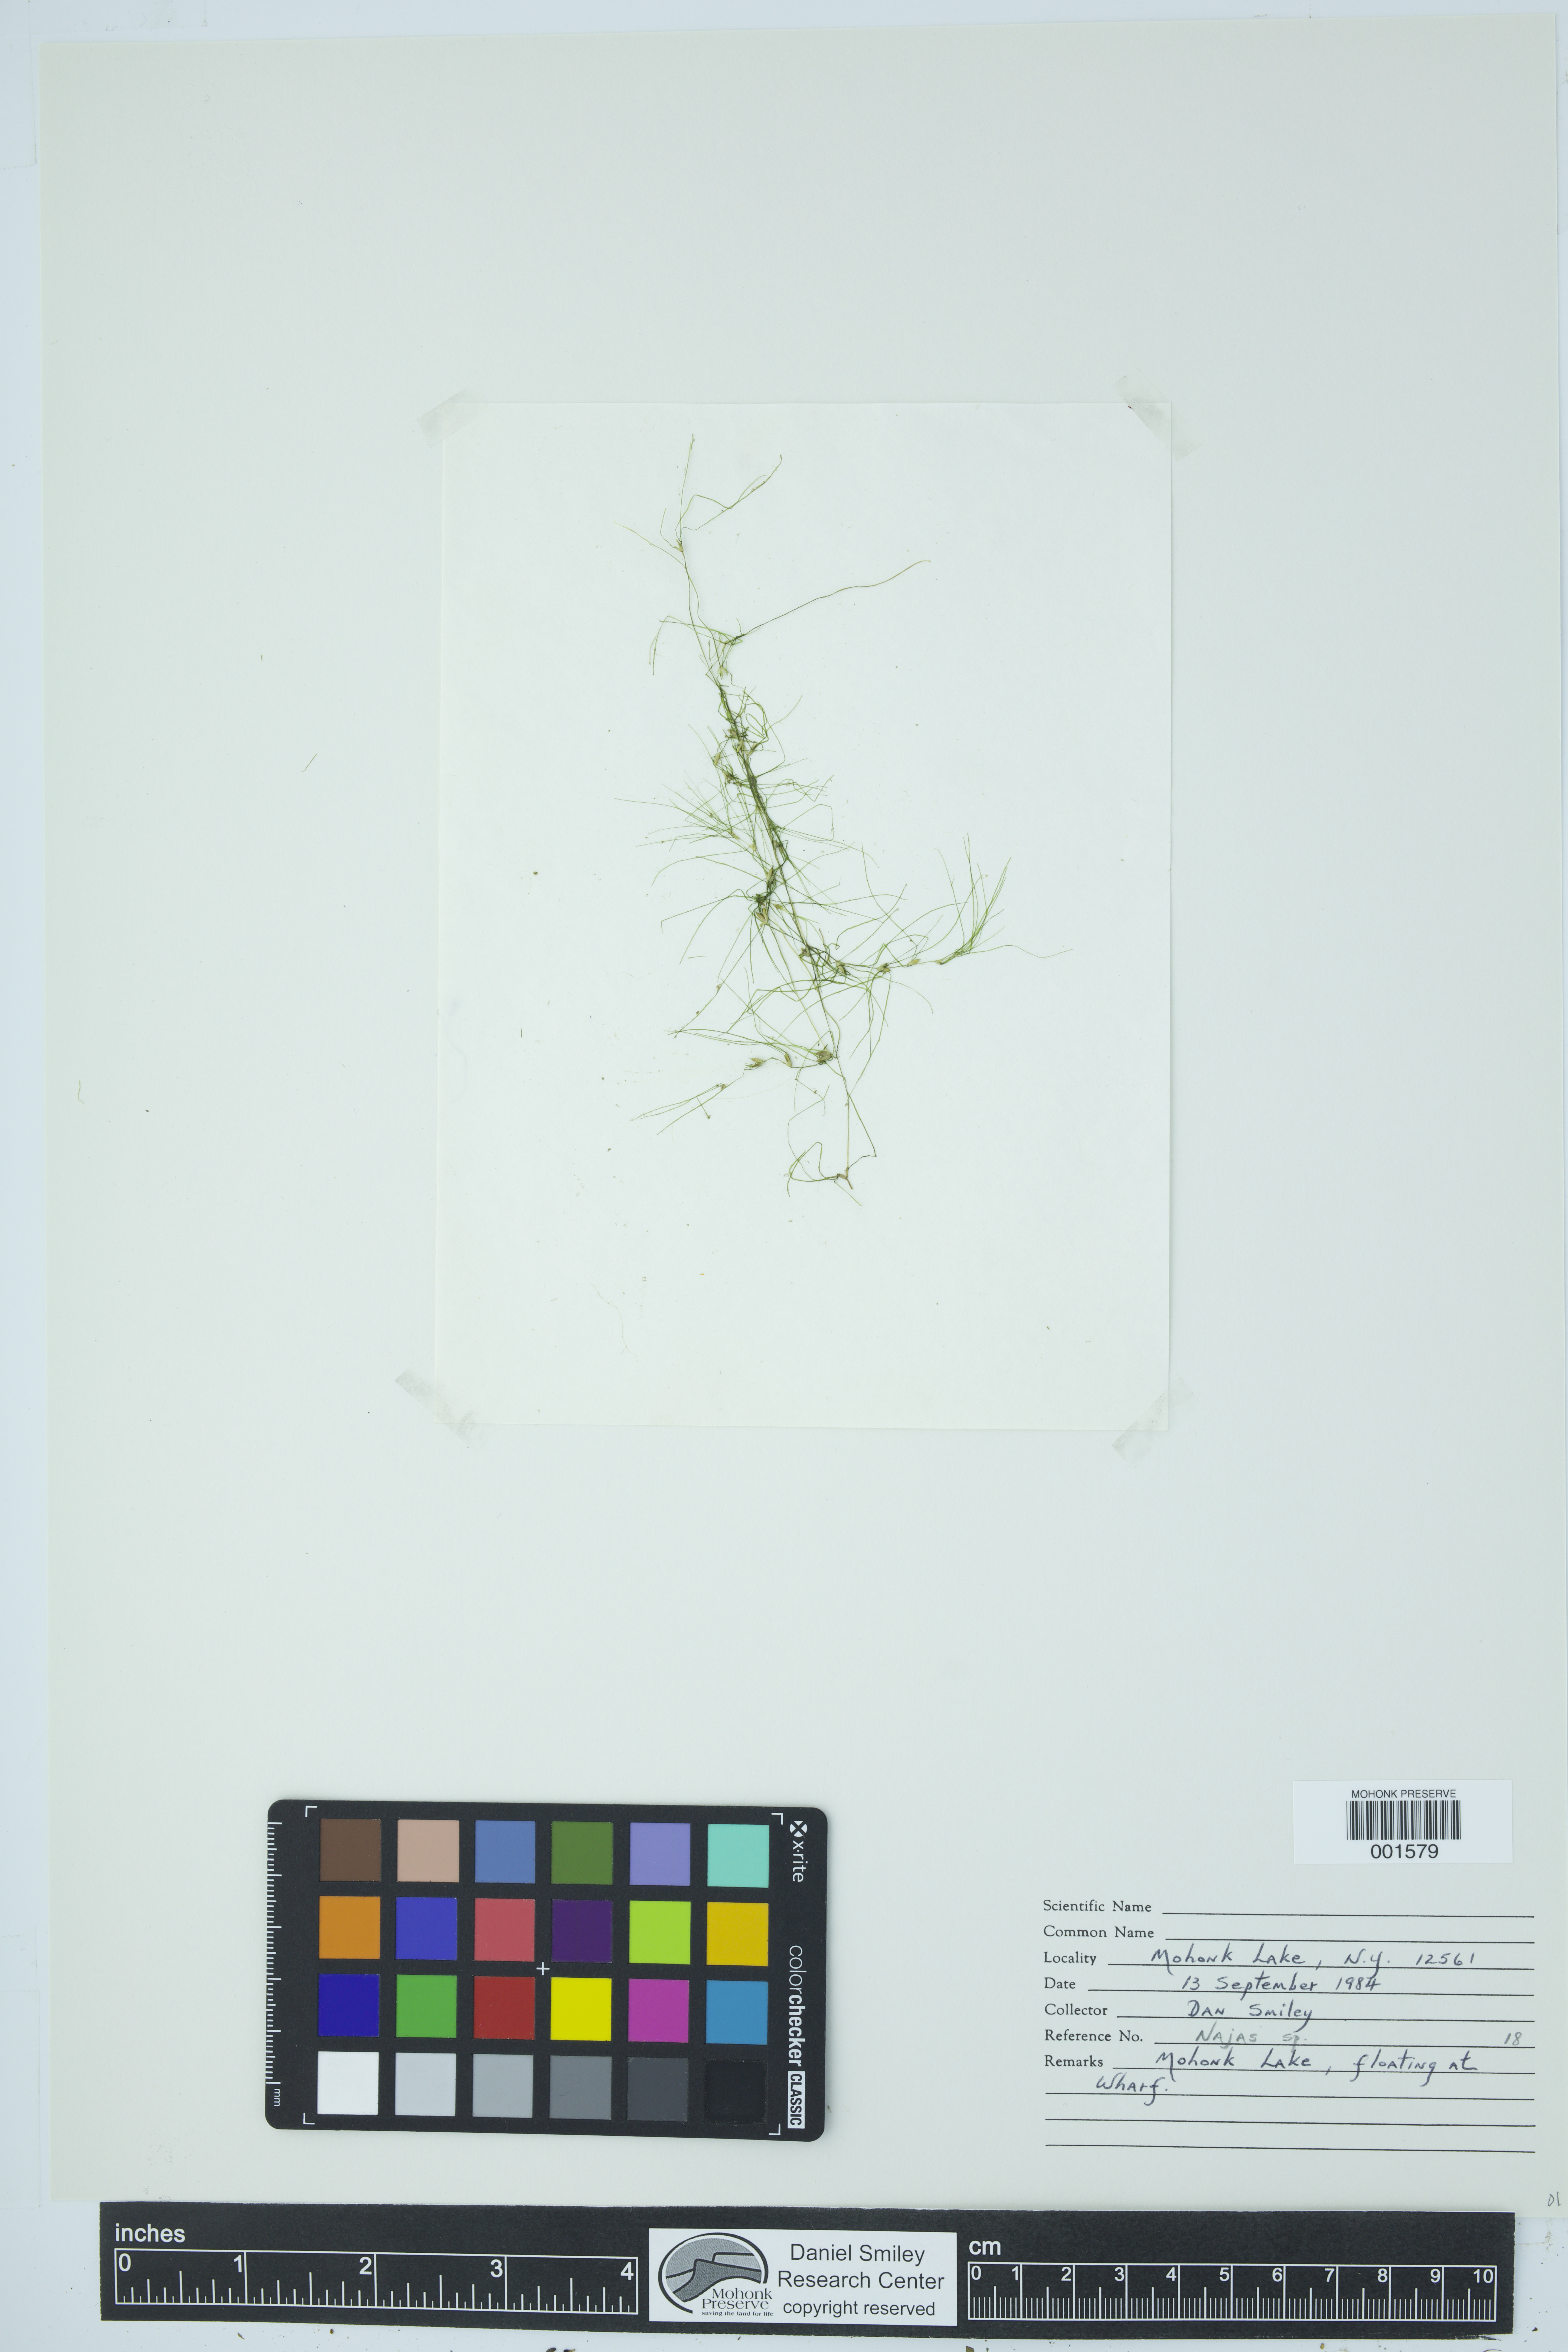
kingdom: Plantae
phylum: Tracheophyta
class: Liliopsida
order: Alismatales
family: Hydrocharitaceae
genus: Najas
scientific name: Najas
